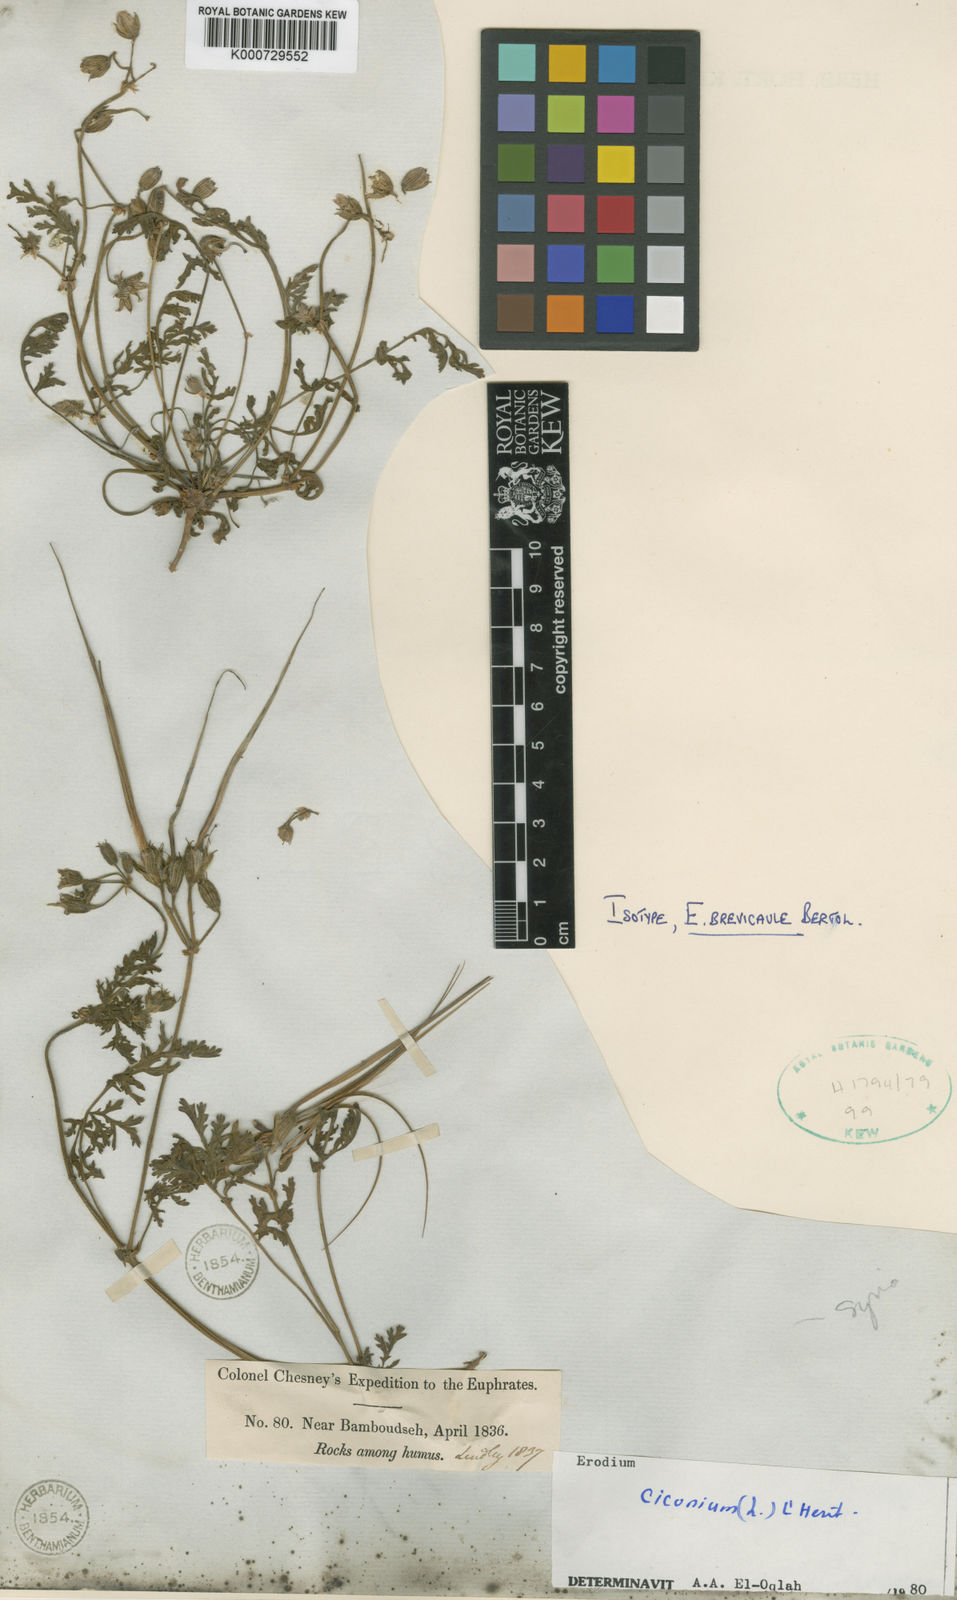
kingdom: Plantae
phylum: Tracheophyta
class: Magnoliopsida
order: Geraniales
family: Geraniaceae
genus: Erodium
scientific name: Erodium
